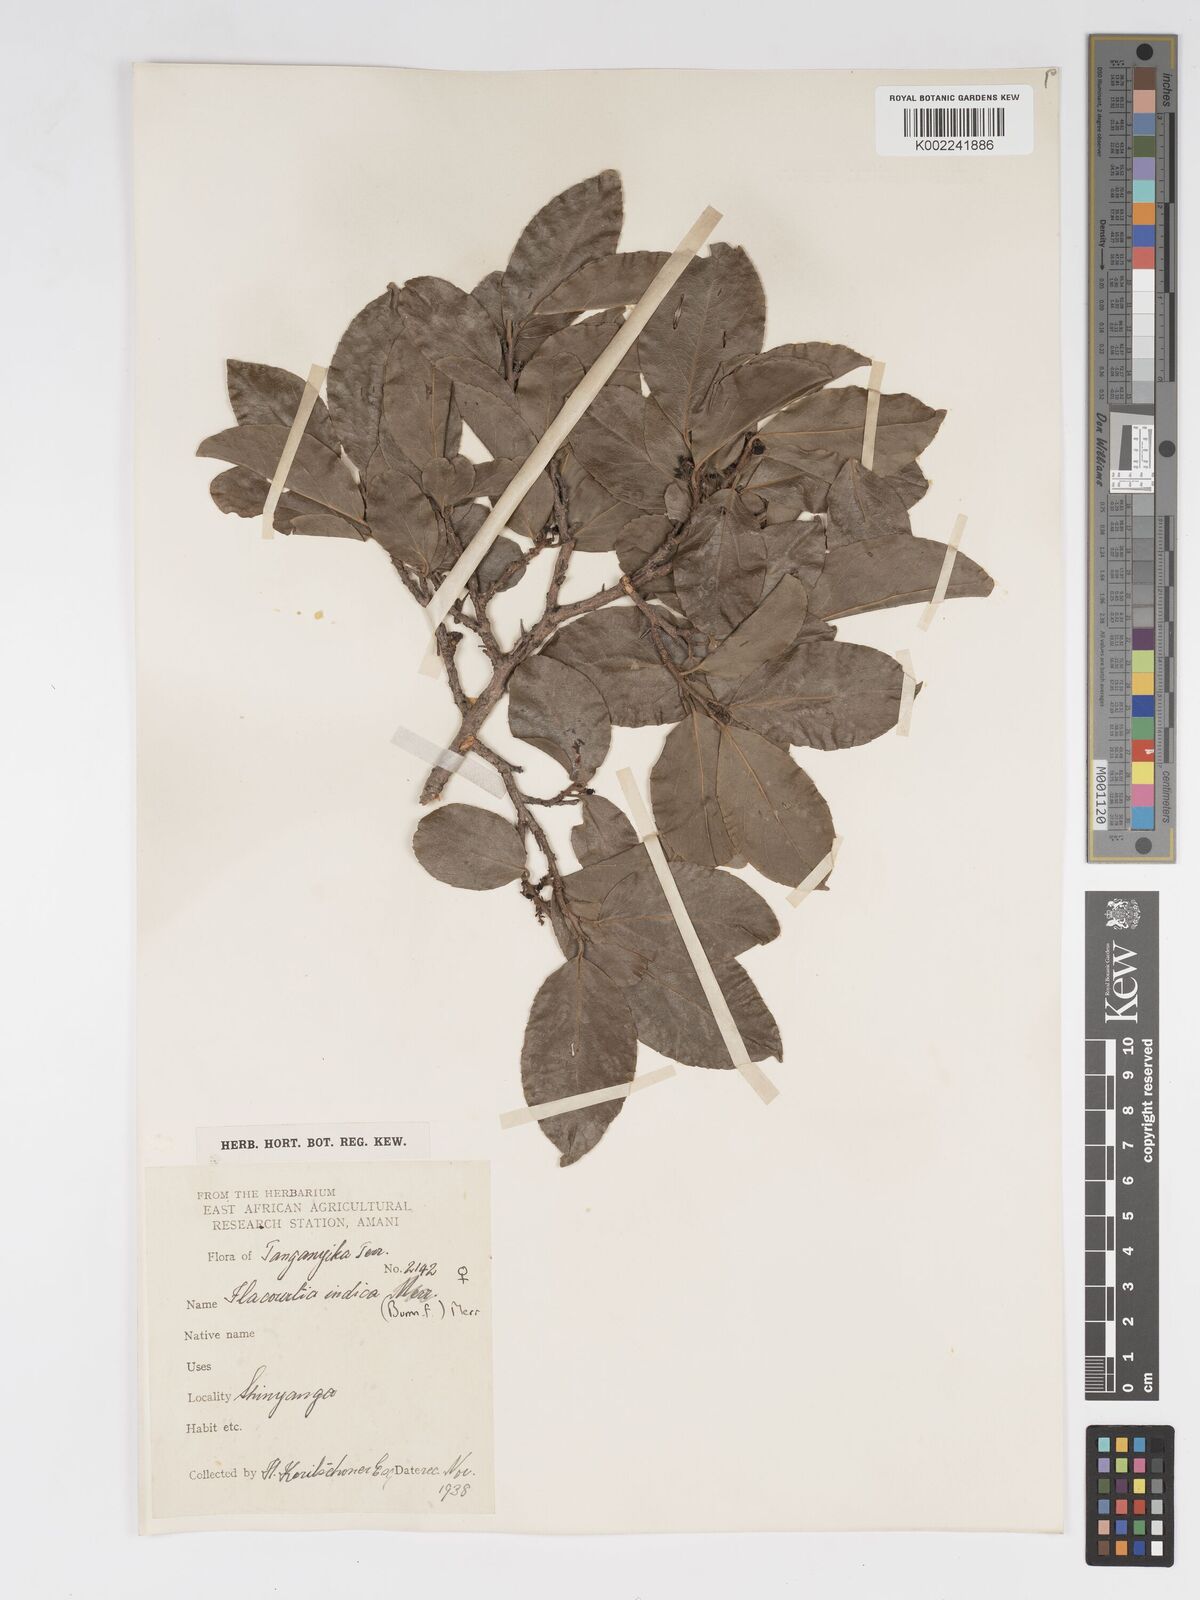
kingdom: Plantae
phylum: Tracheophyta
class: Magnoliopsida
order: Malpighiales
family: Salicaceae
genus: Flacourtia
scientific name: Flacourtia indica
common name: Governor's plum
